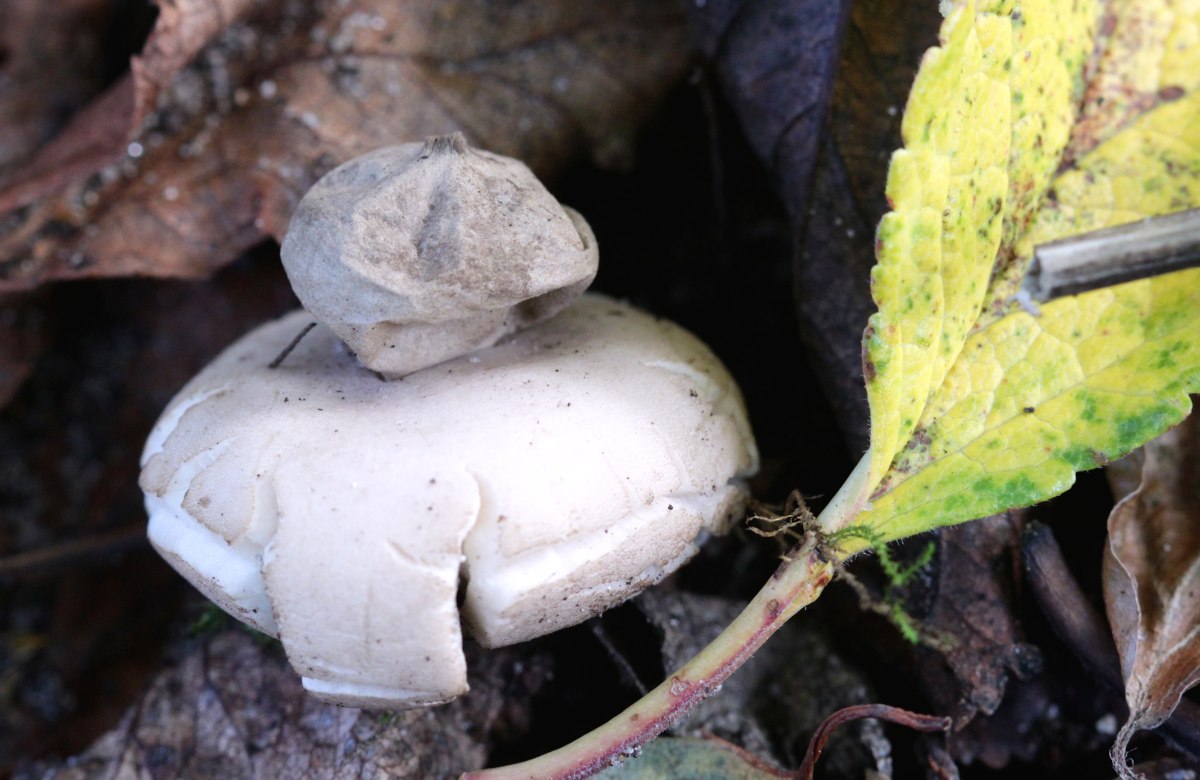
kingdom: Fungi
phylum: Basidiomycota
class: Agaricomycetes
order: Geastrales
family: Geastraceae
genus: Geastrum
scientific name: Geastrum fimbriatum
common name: frynset stjernebold
